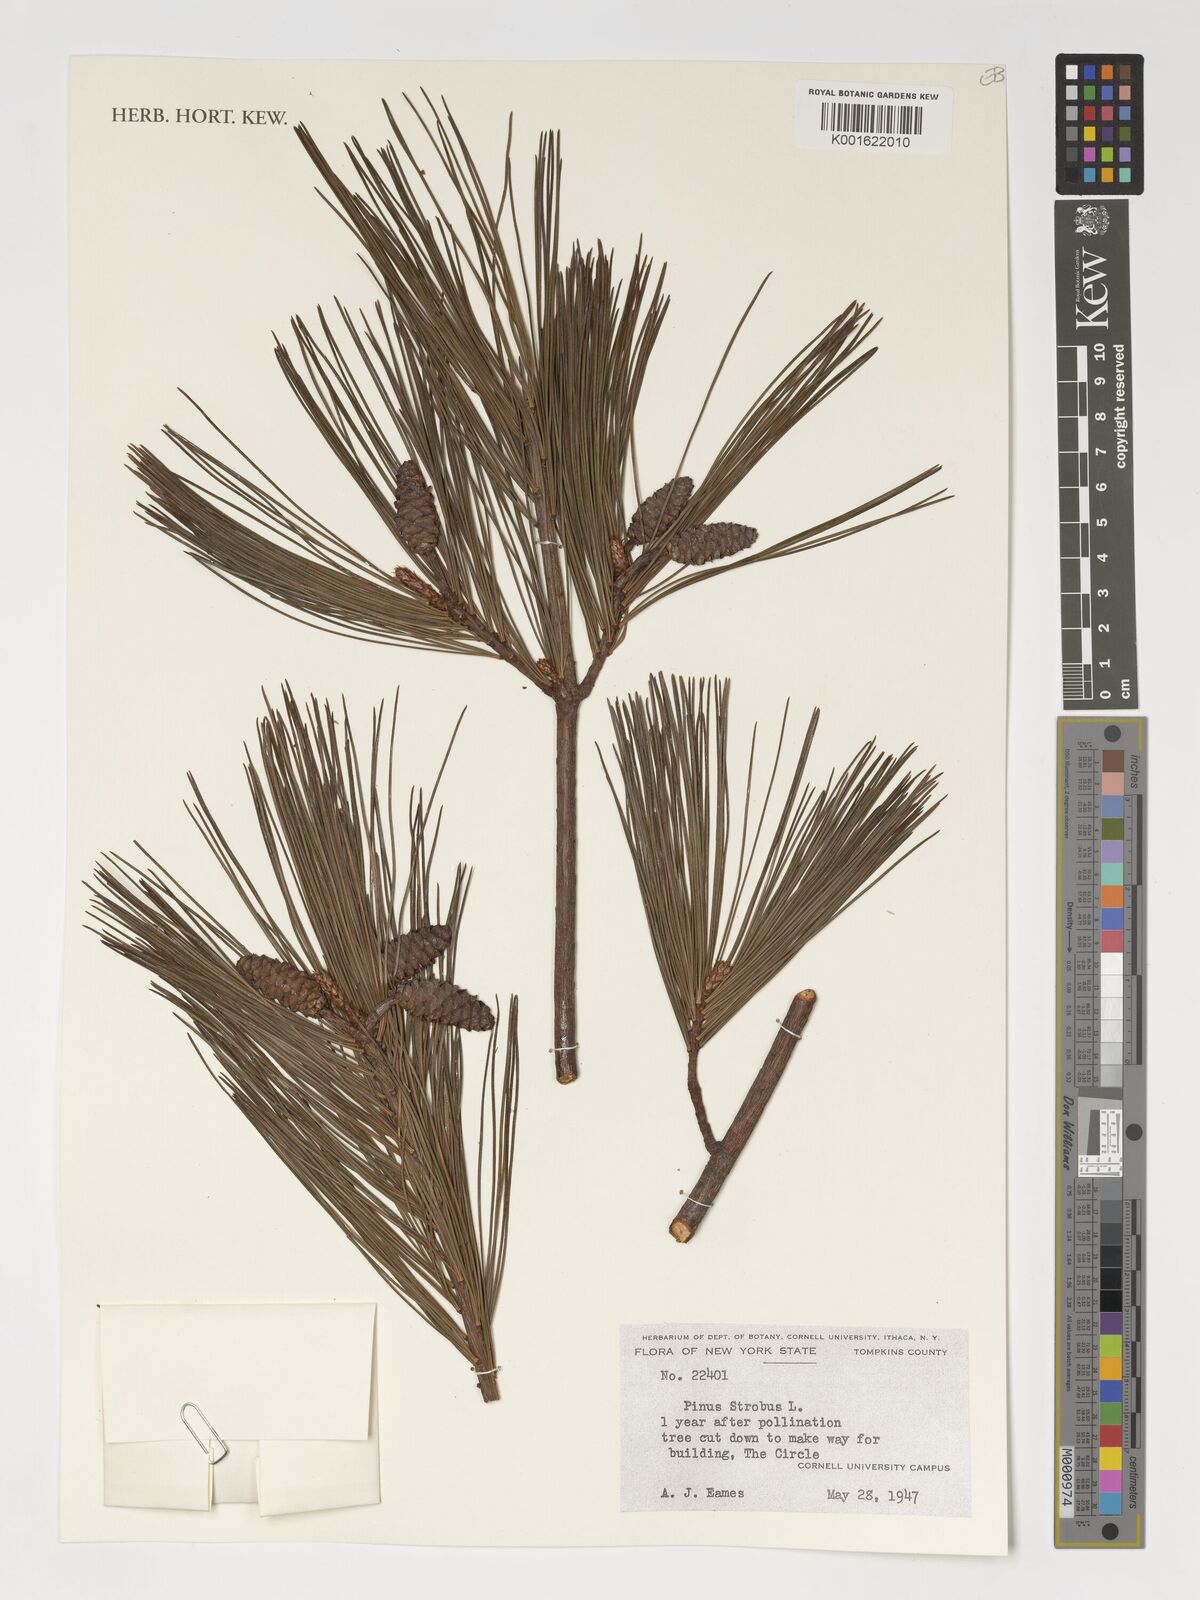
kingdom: Plantae
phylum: Tracheophyta
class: Pinopsida
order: Pinales
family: Pinaceae
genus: Pinus
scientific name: Pinus strobus
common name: Weymouth pine
